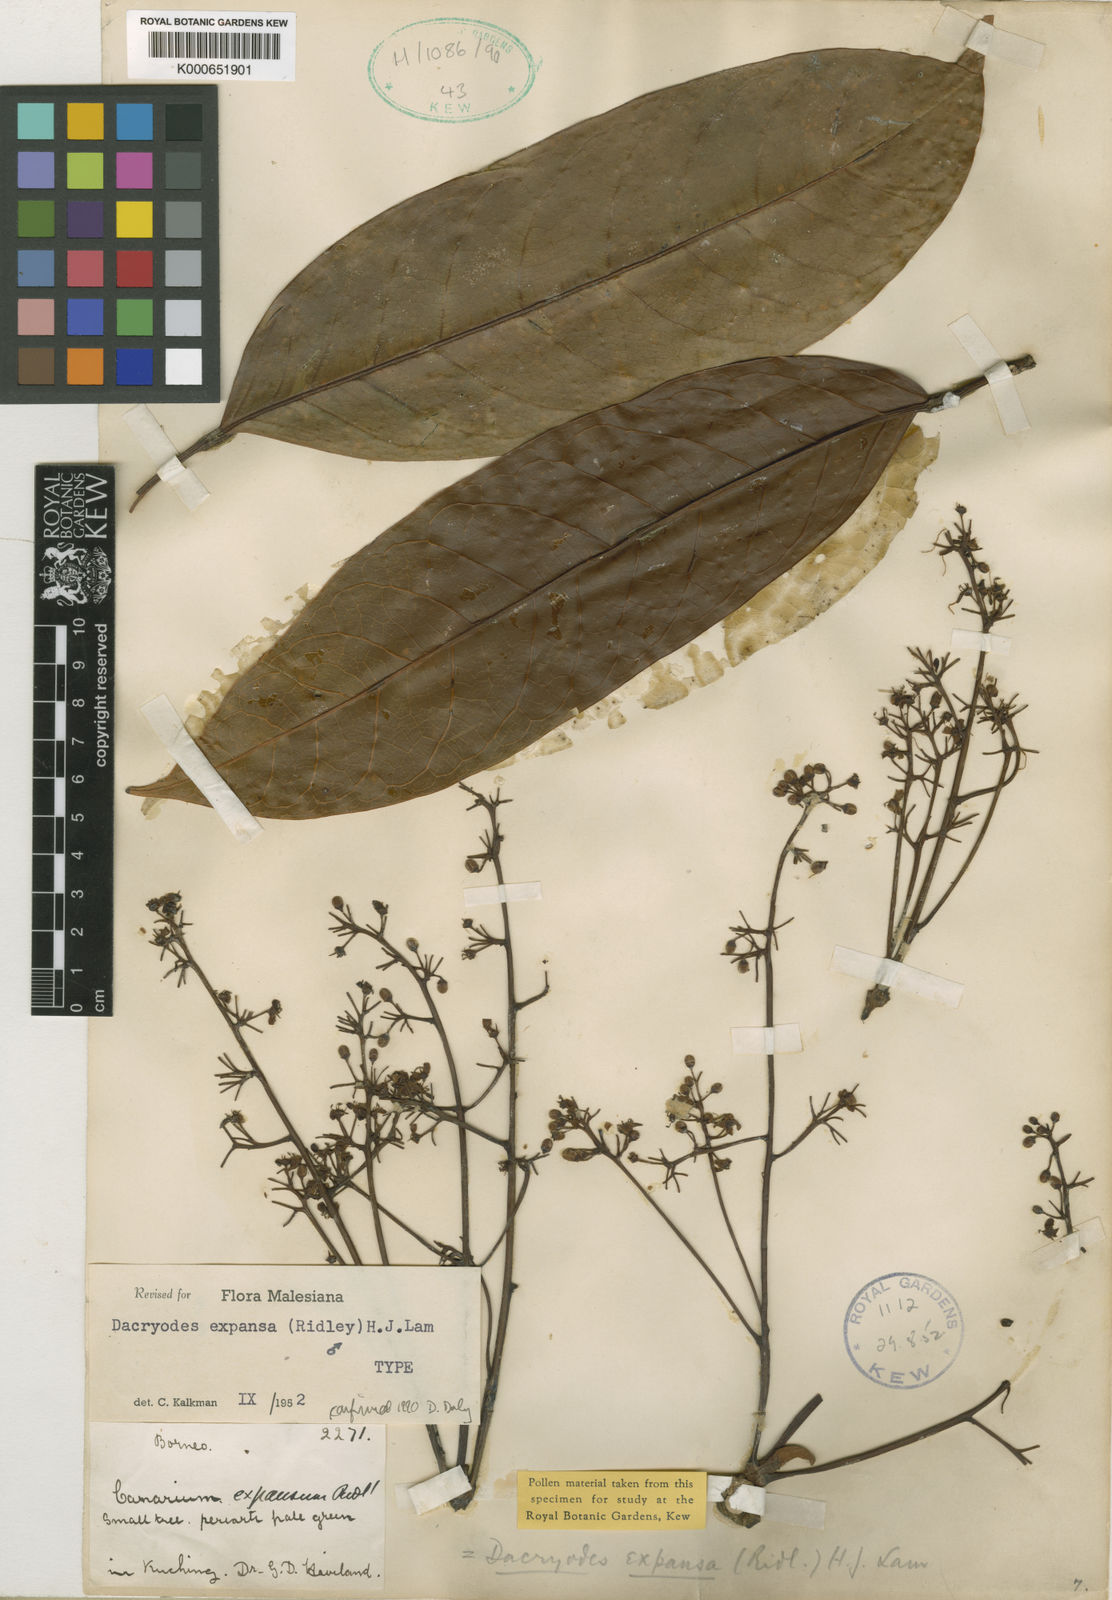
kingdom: Plantae
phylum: Tracheophyta
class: Magnoliopsida
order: Sapindales
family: Burseraceae
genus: Dacryodes
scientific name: Dacryodes expansa
